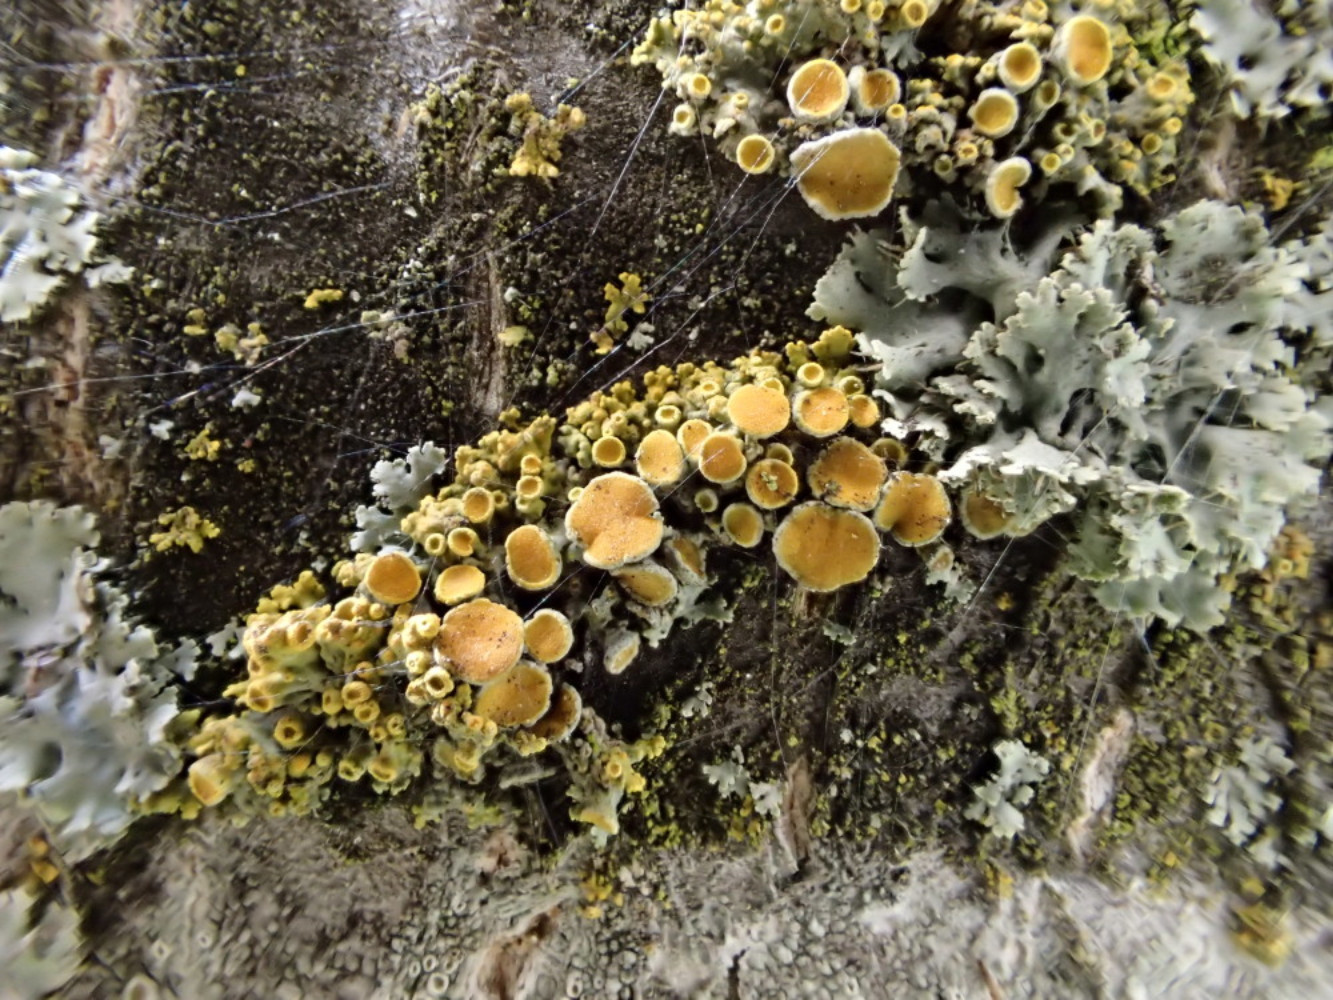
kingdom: Fungi
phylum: Ascomycota
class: Lecanoromycetes
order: Teloschistales
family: Teloschistaceae
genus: Polycauliona
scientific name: Polycauliona polycarpa
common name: mangefrugtet orangelav
